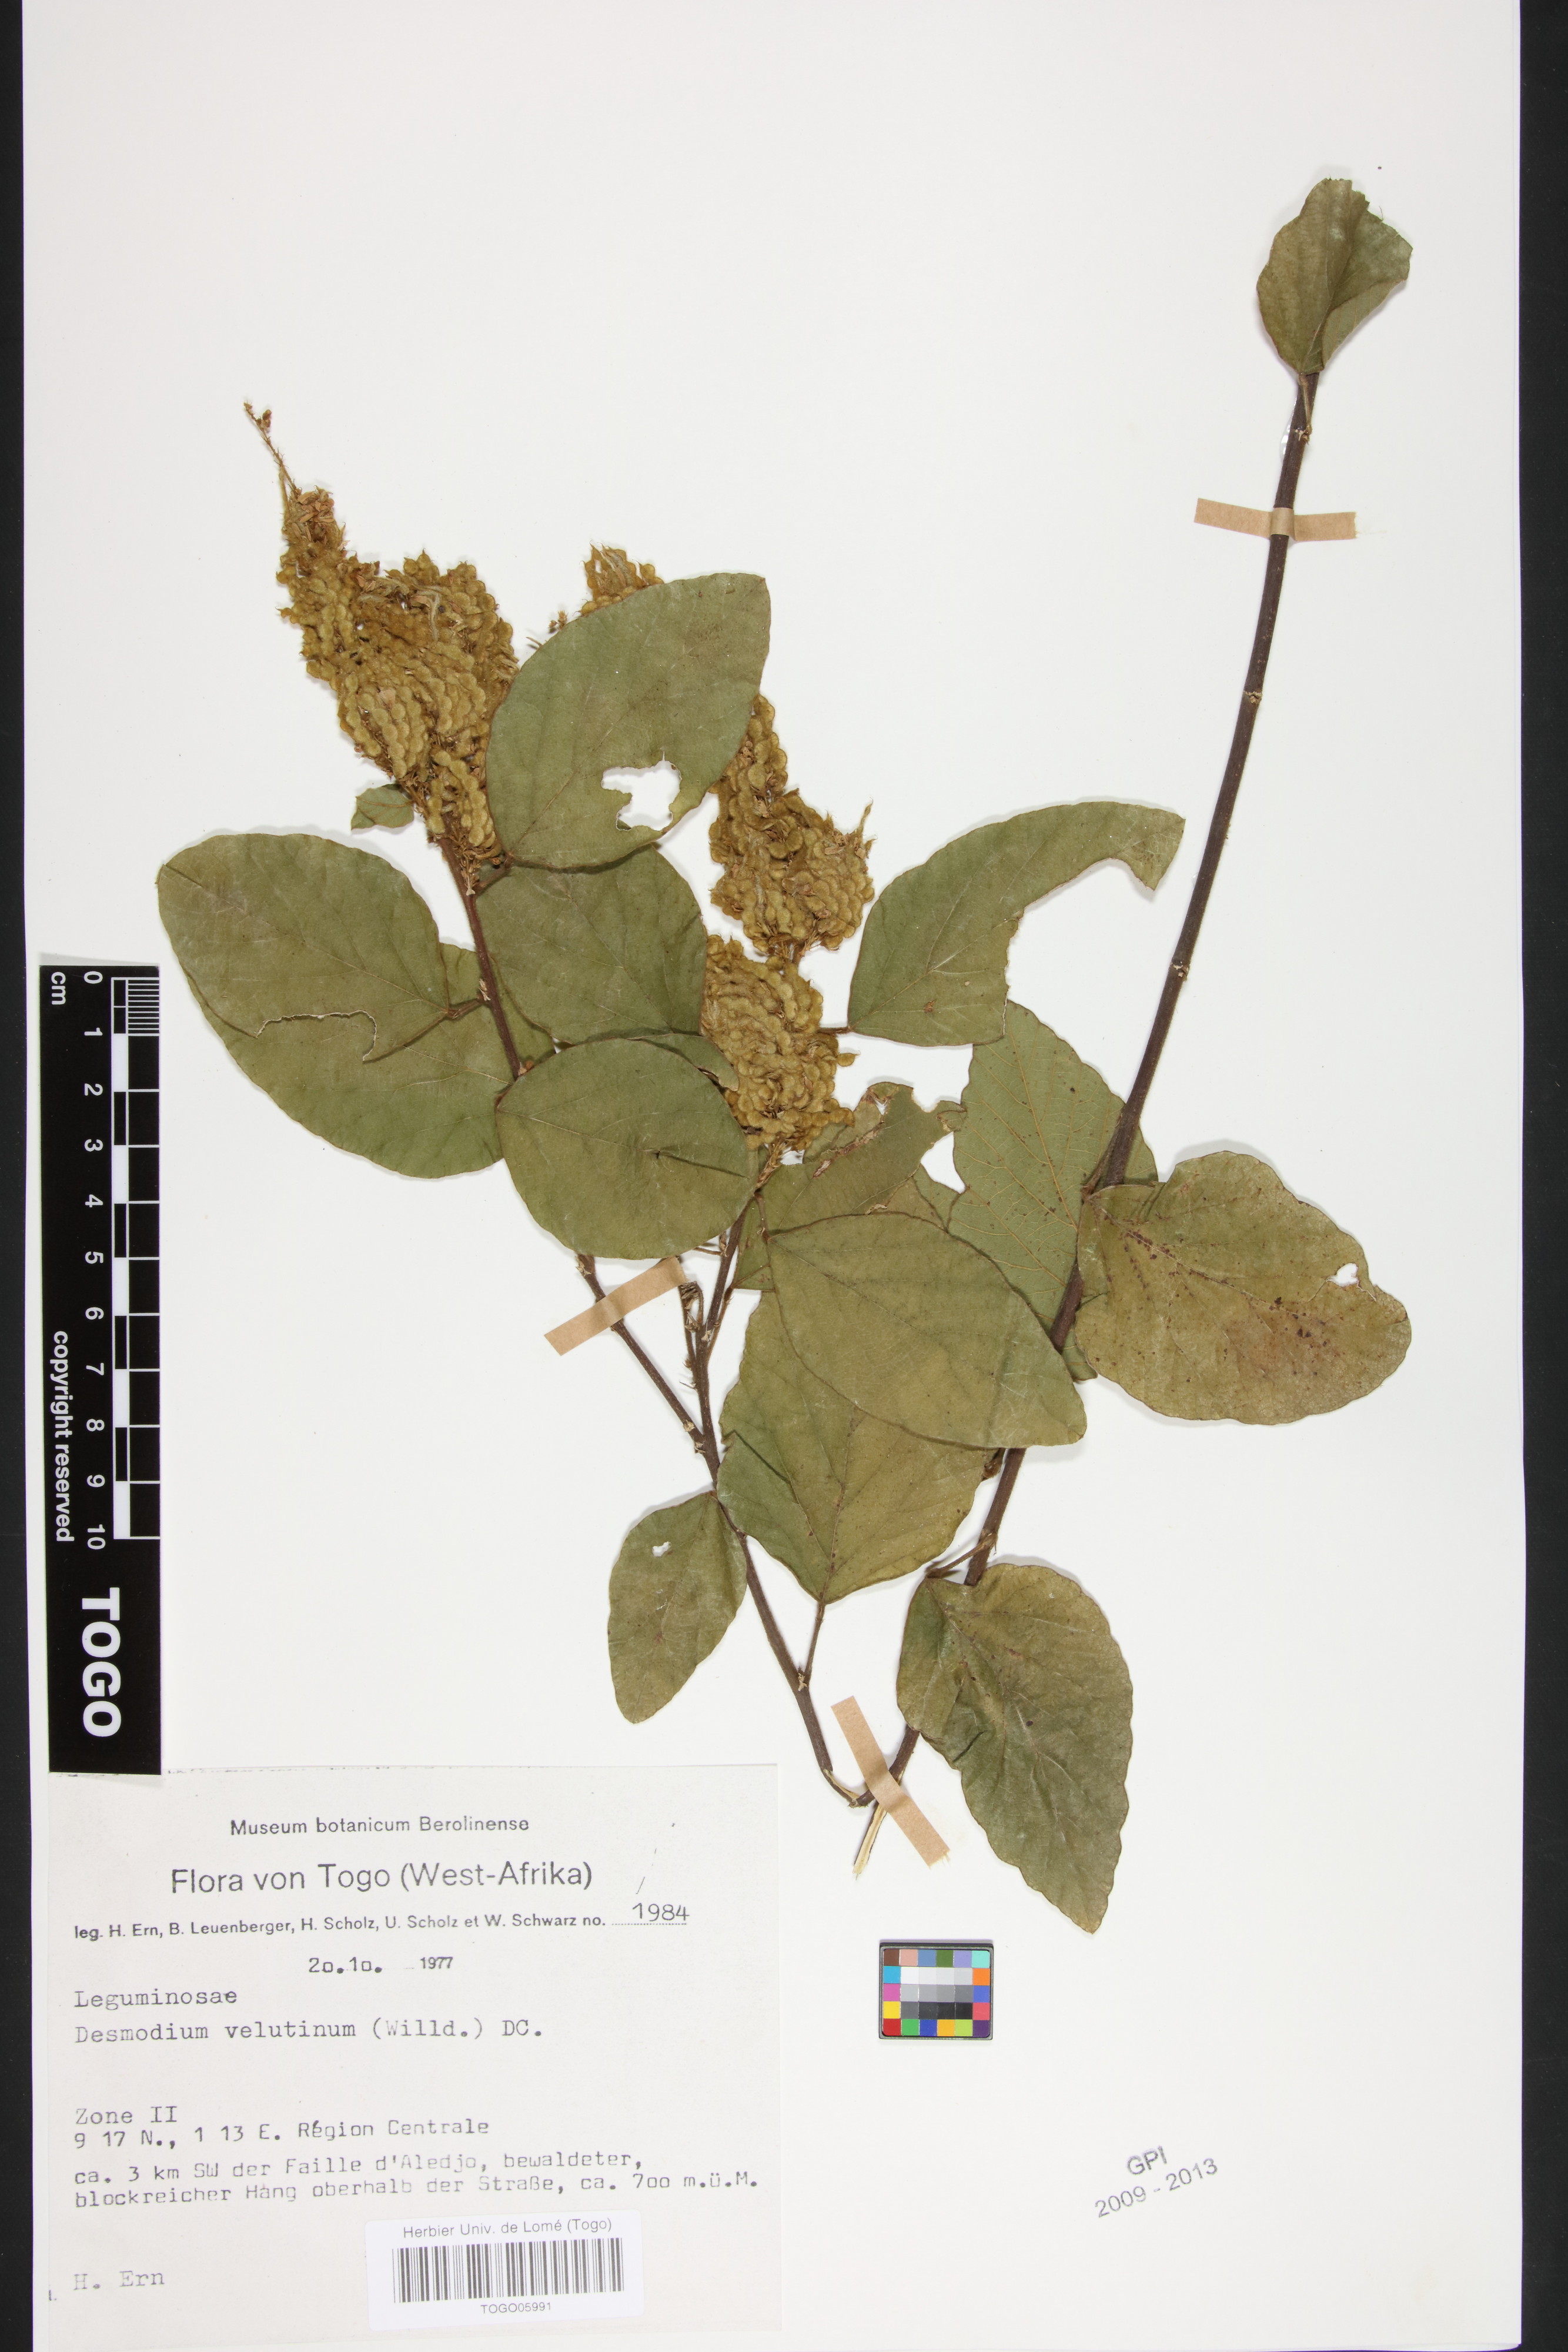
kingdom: Plantae
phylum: Tracheophyta
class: Magnoliopsida
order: Fabales
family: Fabaceae
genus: Polhillides
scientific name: Polhillides velutina
